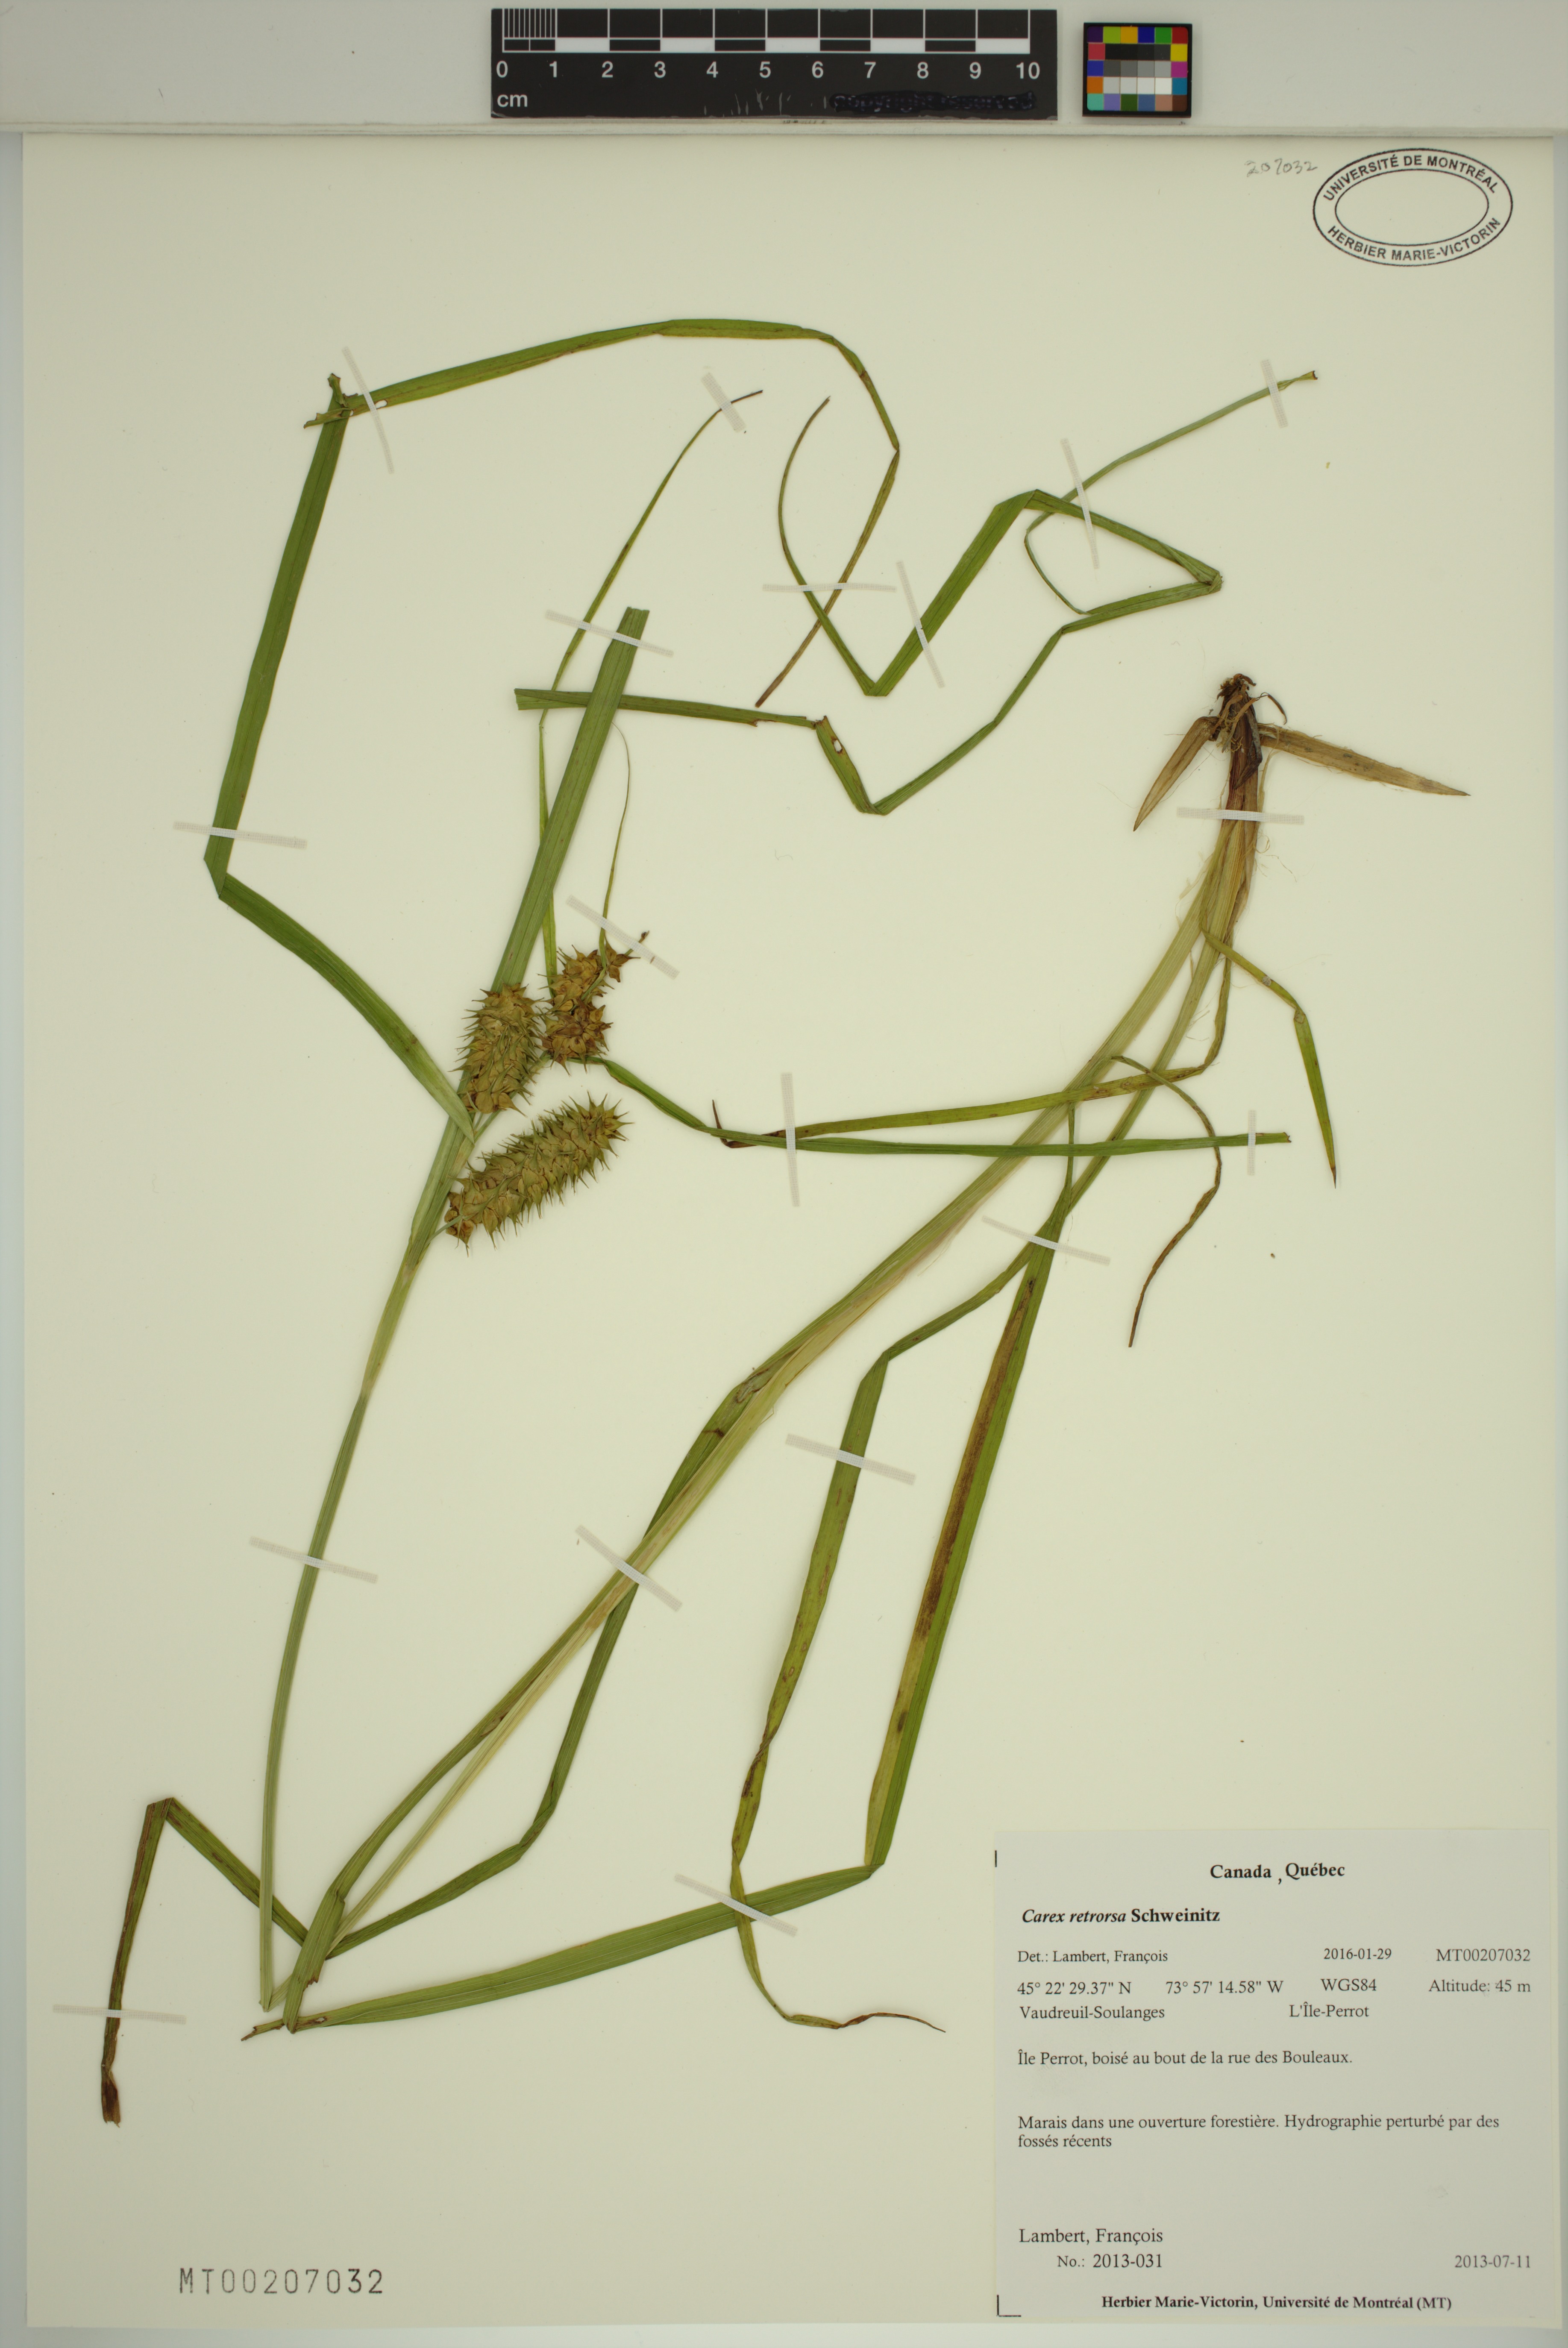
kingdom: Plantae
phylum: Tracheophyta
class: Liliopsida
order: Poales
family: Cyperaceae
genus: Carex
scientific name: Carex retrorsa
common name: Knot-sheath sedge
